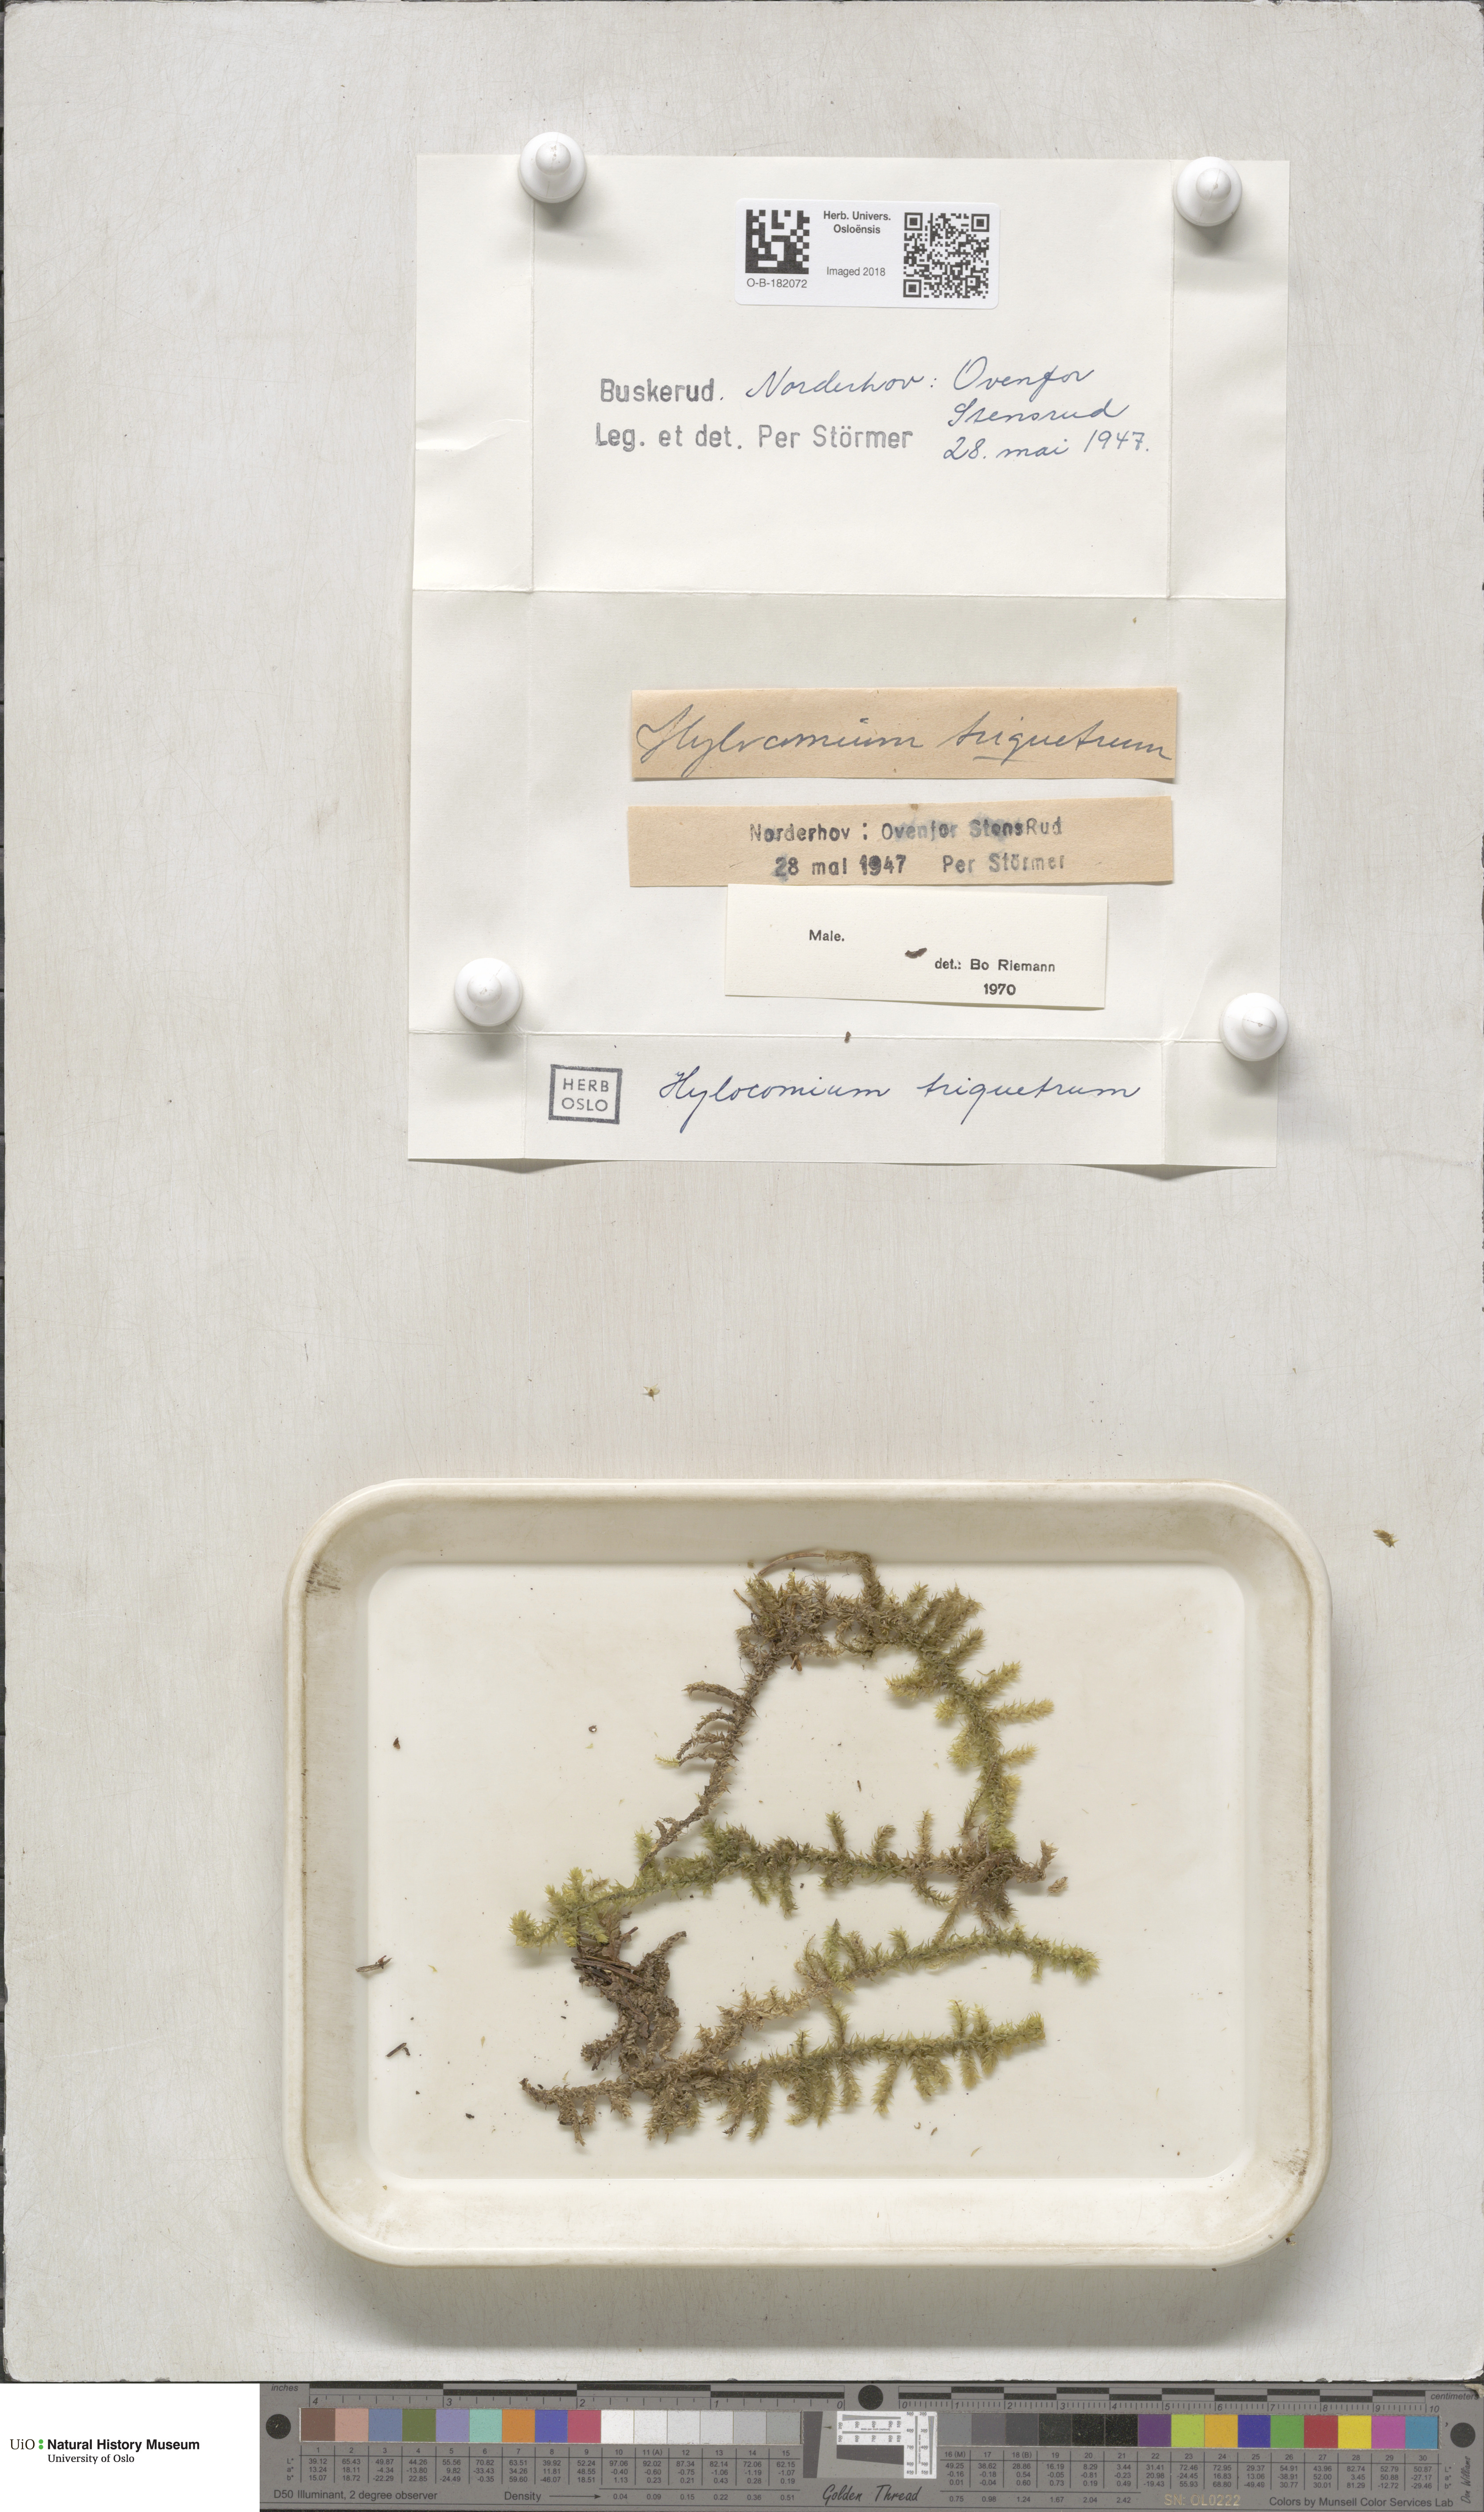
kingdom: Plantae
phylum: Bryophyta
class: Bryopsida
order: Hypnales
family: Hylocomiaceae
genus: Hylocomiadelphus
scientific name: Hylocomiadelphus triquetrus
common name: Rough goose neck moss
